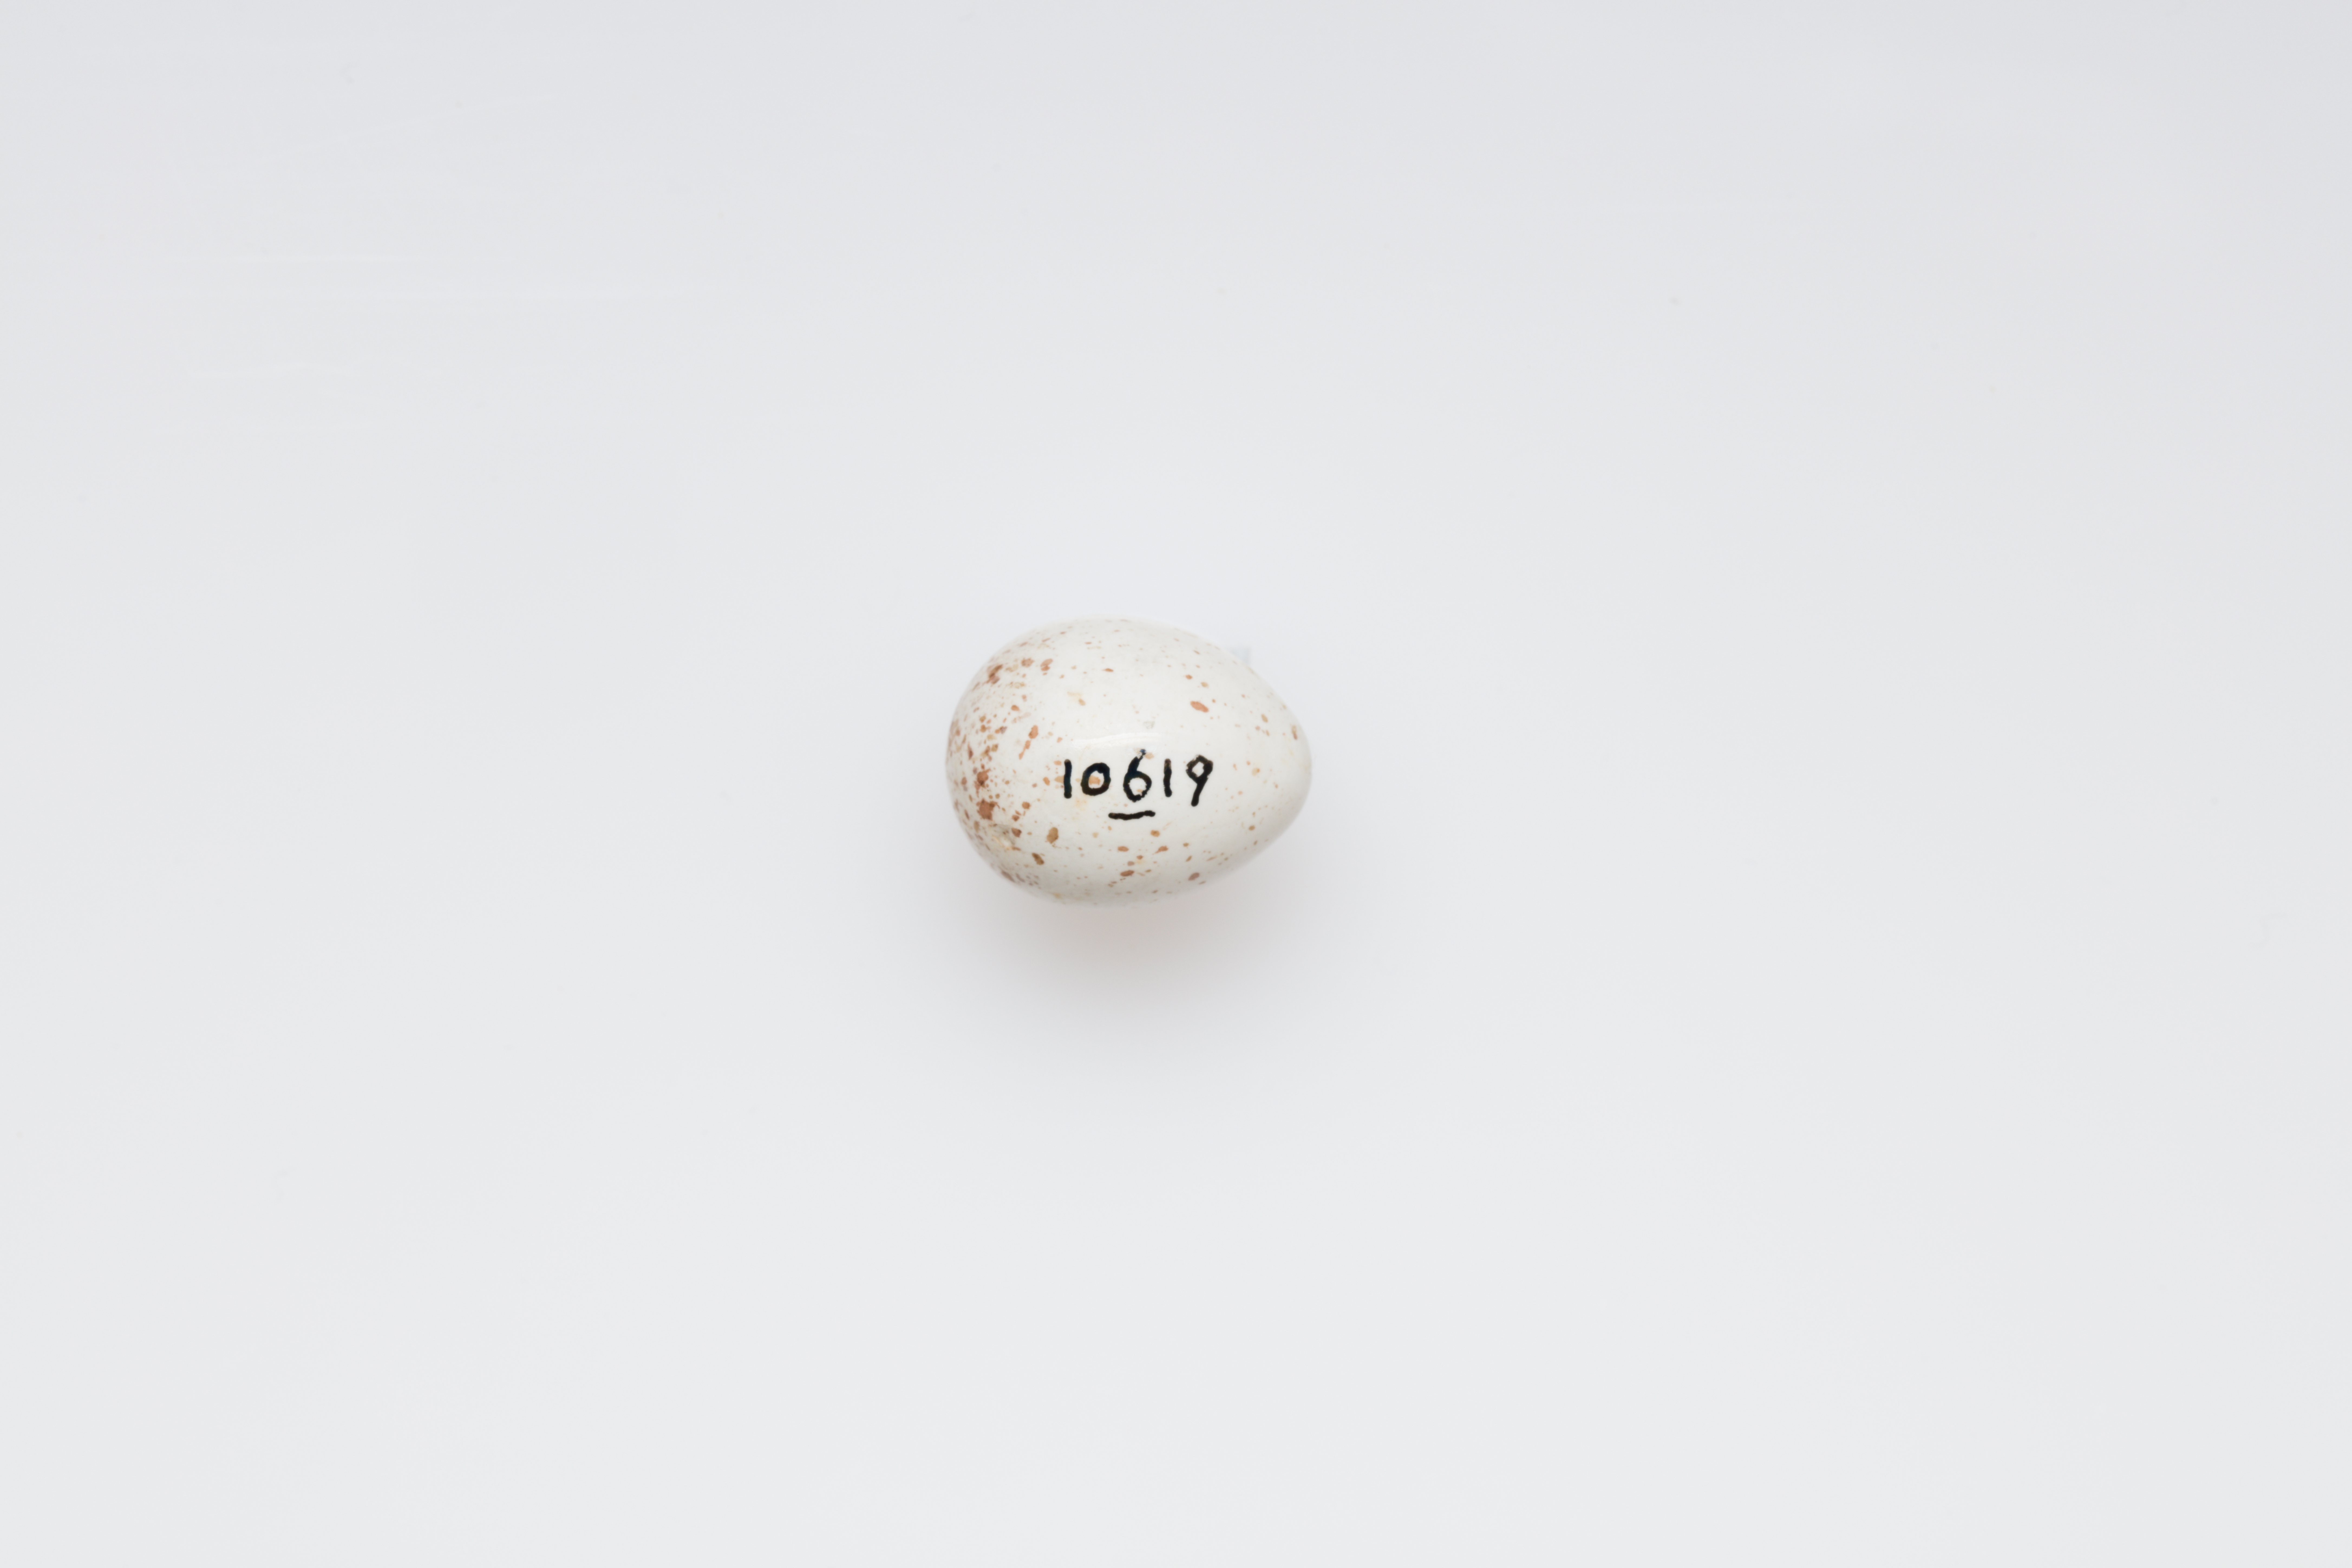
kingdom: Animalia
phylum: Chordata
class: Aves
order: Passeriformes
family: Certhiidae
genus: Certhia
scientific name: Certhia familiaris
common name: Eurasian treecreeper
